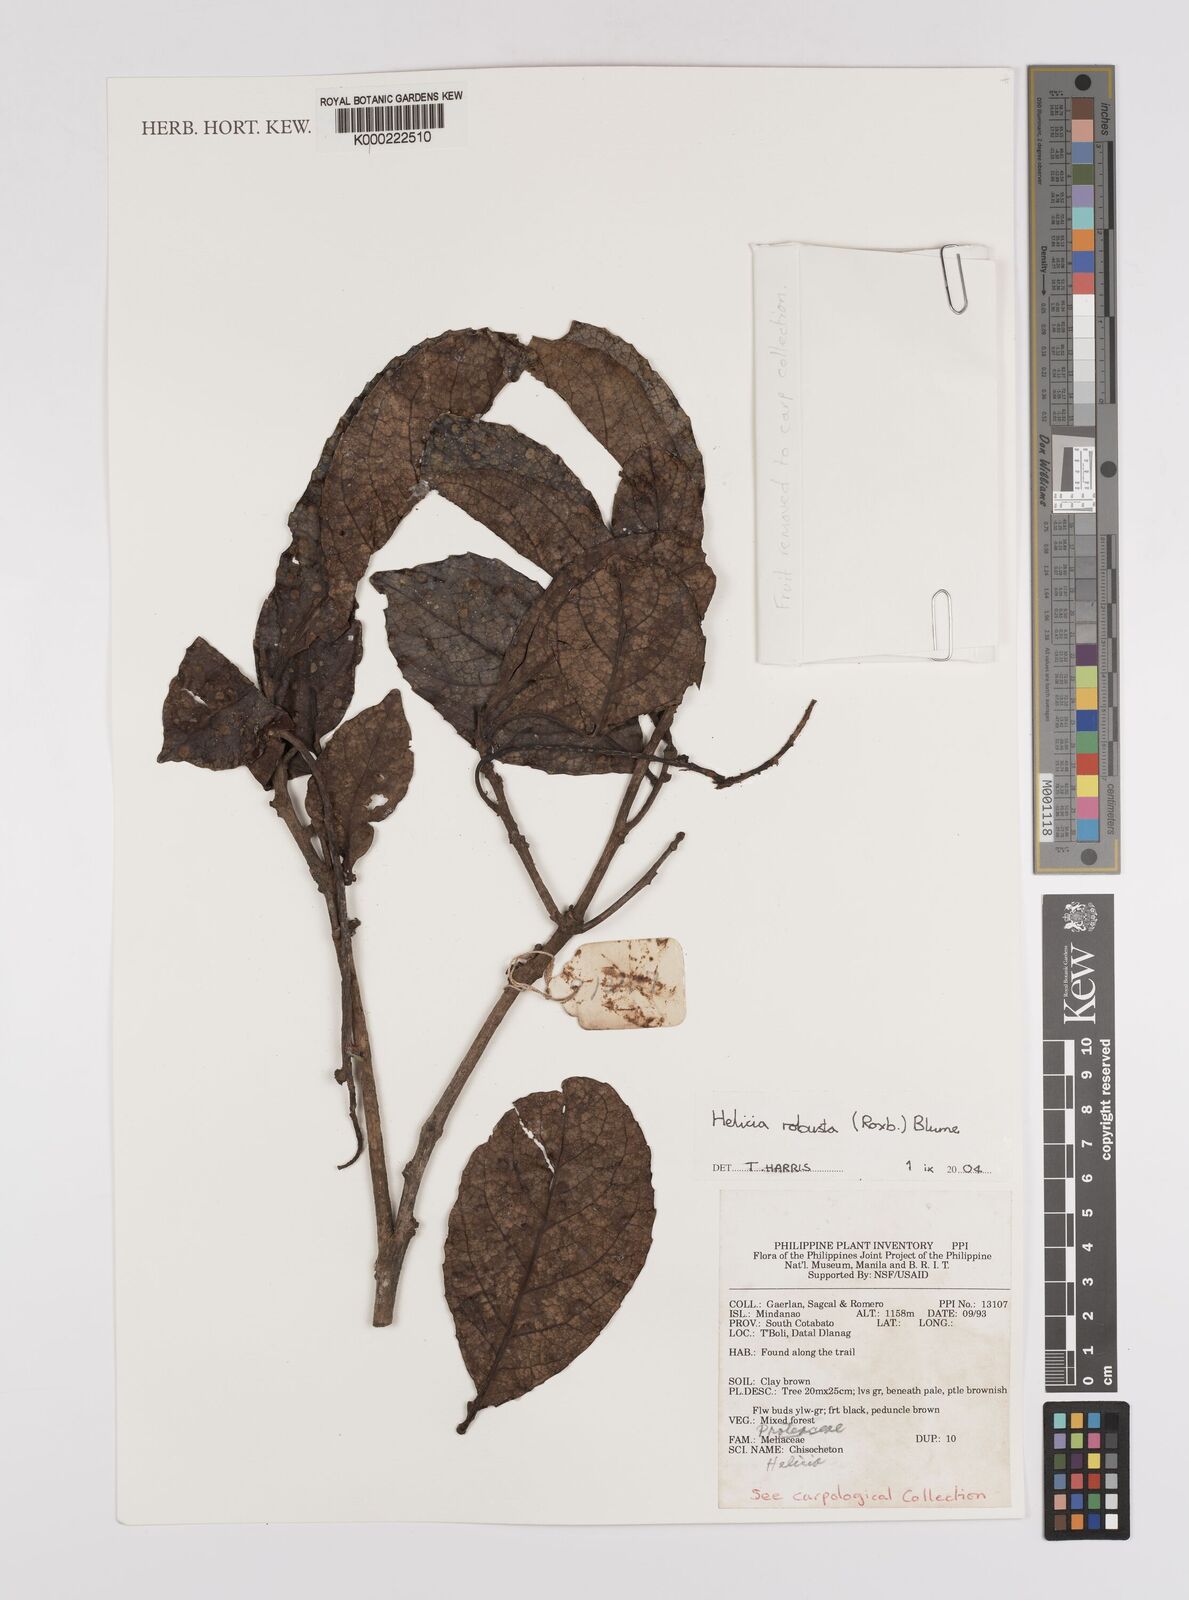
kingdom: Plantae
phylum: Tracheophyta
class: Magnoliopsida
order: Proteales
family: Proteaceae
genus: Helicia
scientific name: Helicia robusta
